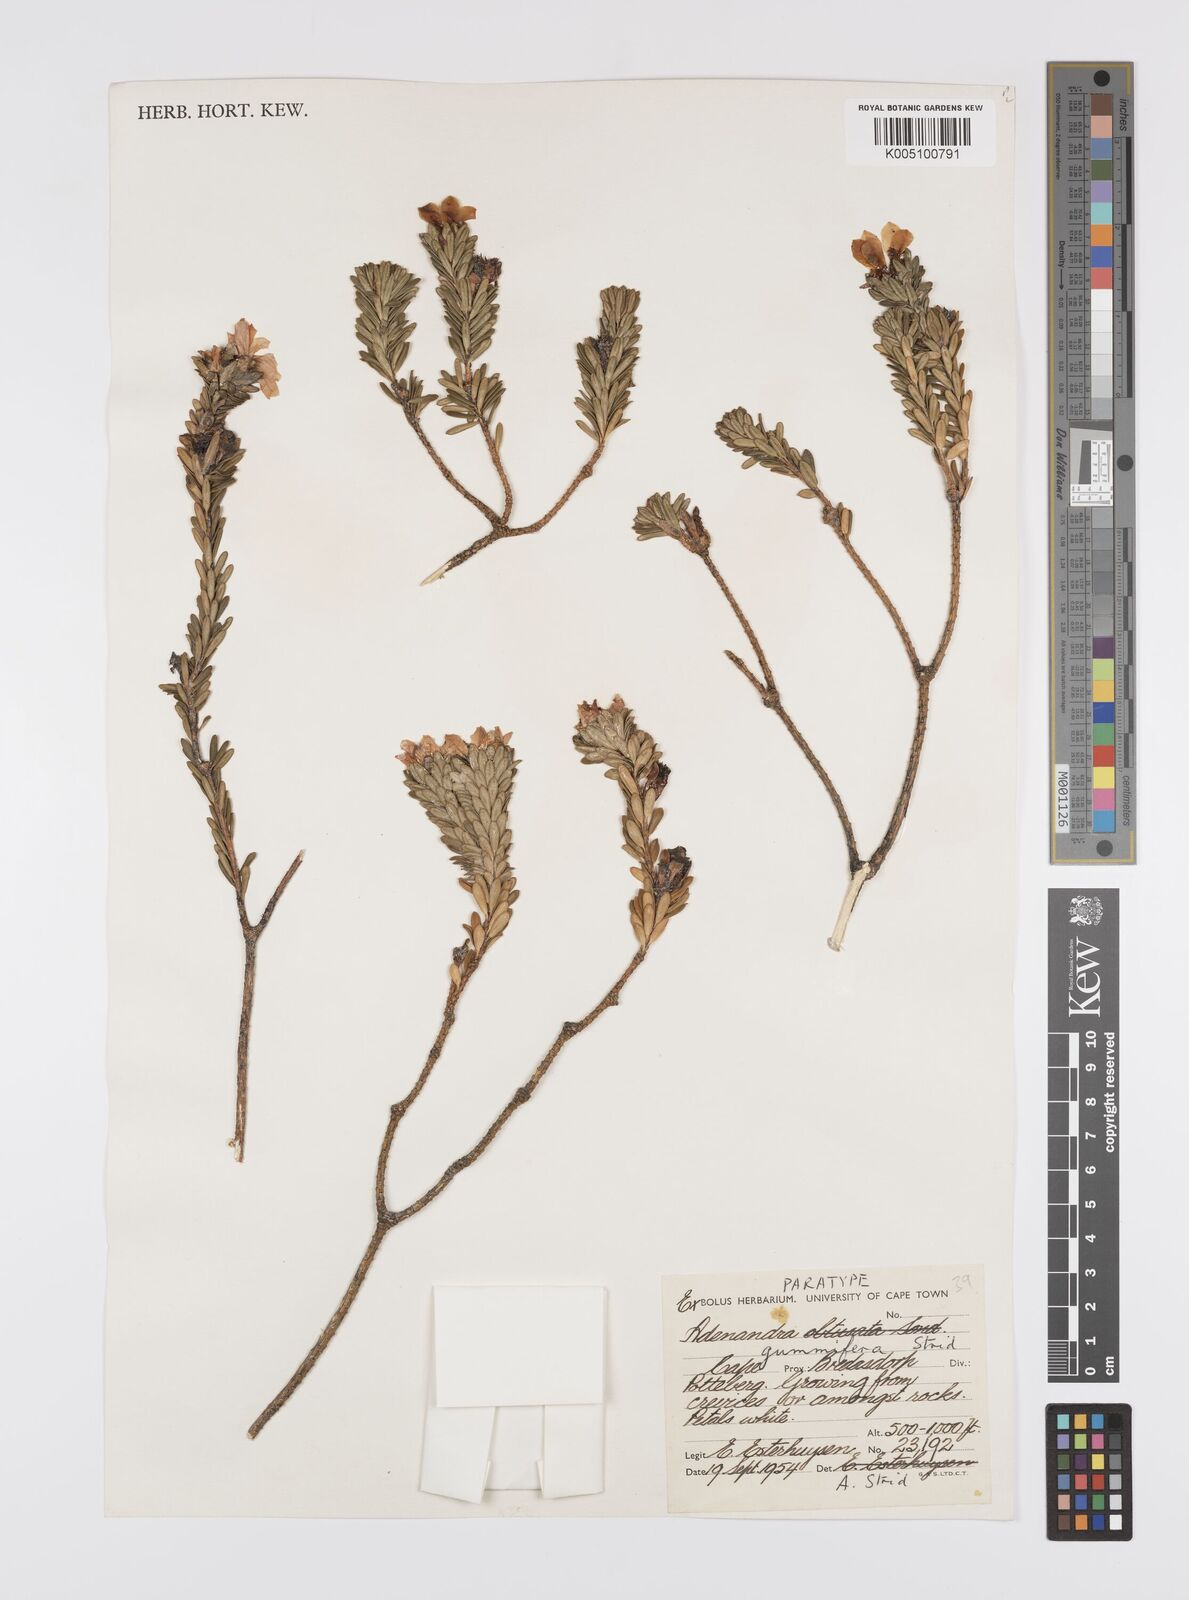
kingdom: Plantae
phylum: Tracheophyta
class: Magnoliopsida
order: Sapindales
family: Rutaceae
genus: Adenandra
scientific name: Adenandra gummifera
